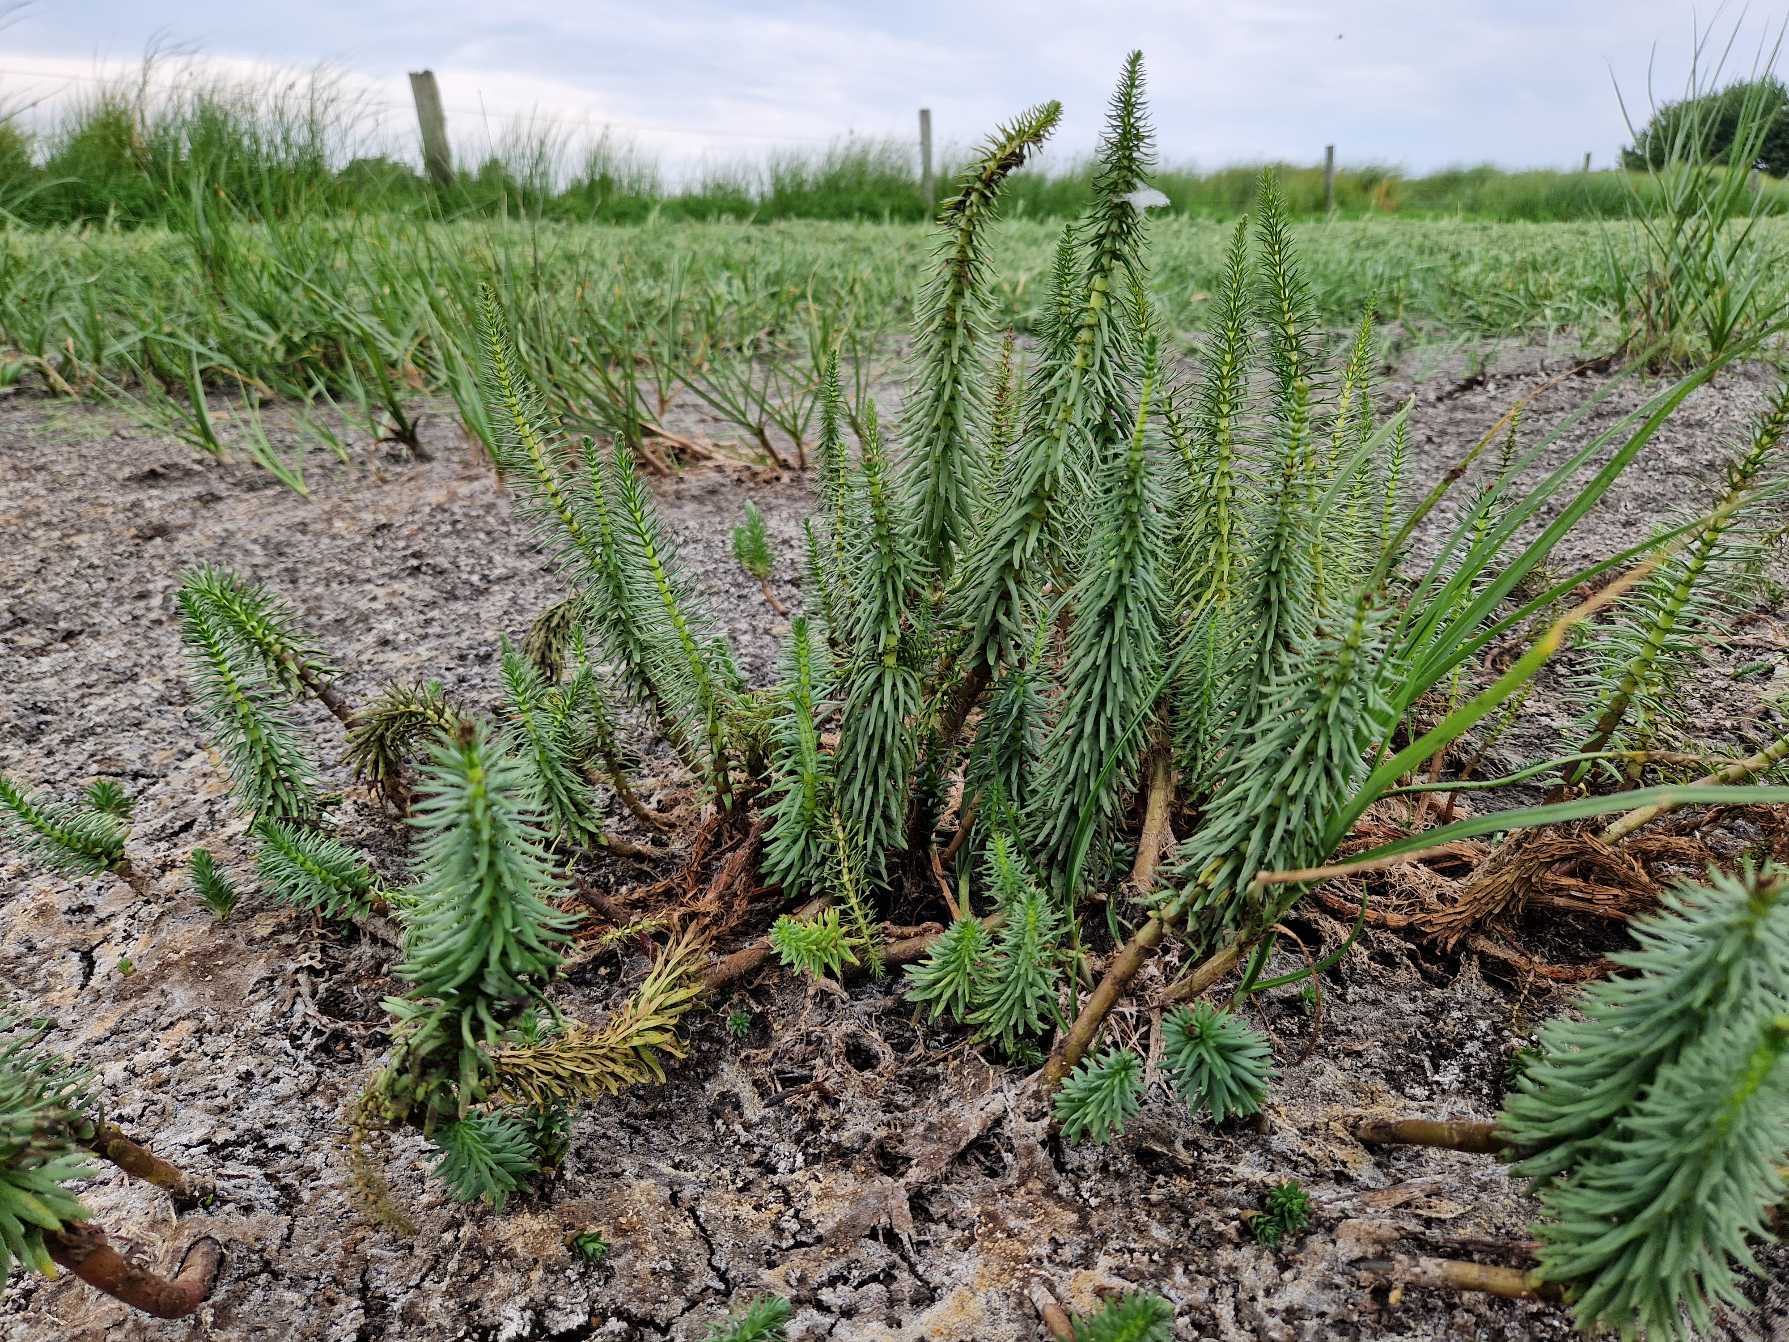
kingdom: Plantae
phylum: Tracheophyta
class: Magnoliopsida
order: Lamiales
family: Plantaginaceae
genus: Hippuris
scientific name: Hippuris vulgaris
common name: Vandspir
